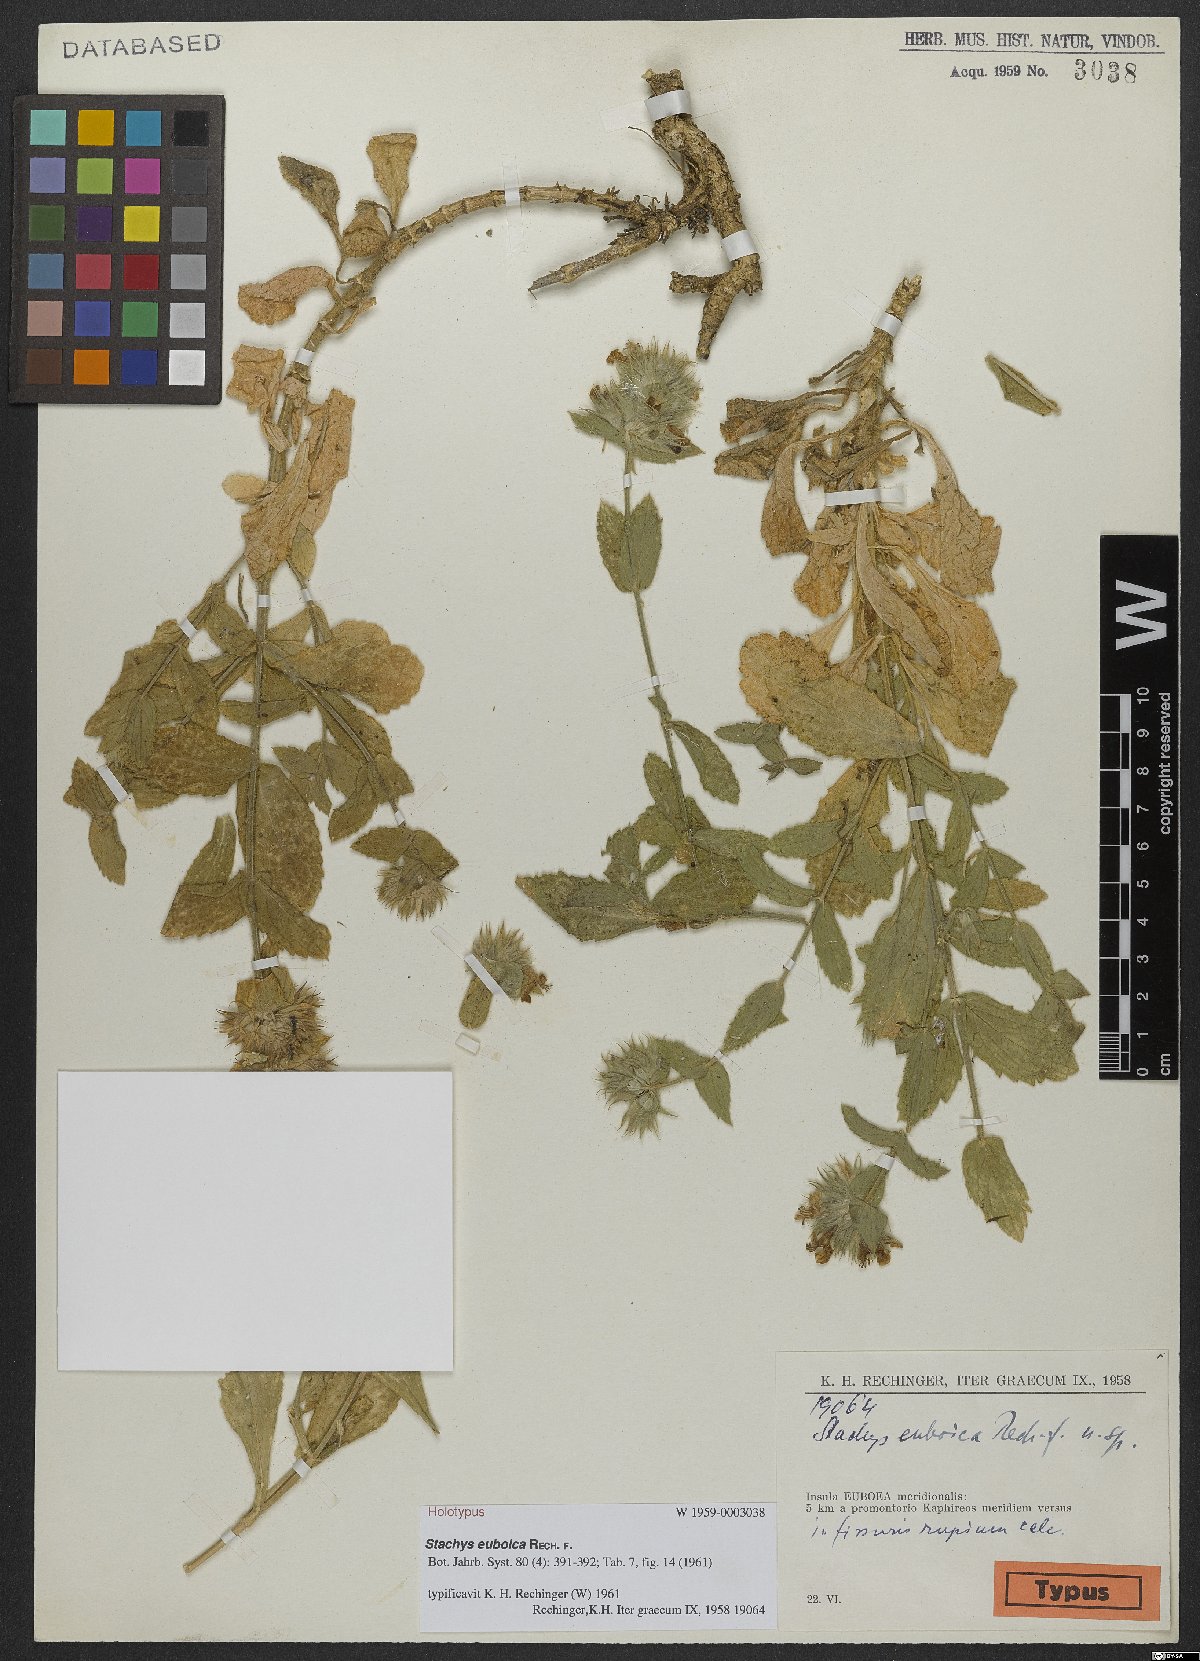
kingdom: Plantae
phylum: Tracheophyta
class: Magnoliopsida
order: Lamiales
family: Lamiaceae
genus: Stachys
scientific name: Stachys euboica
